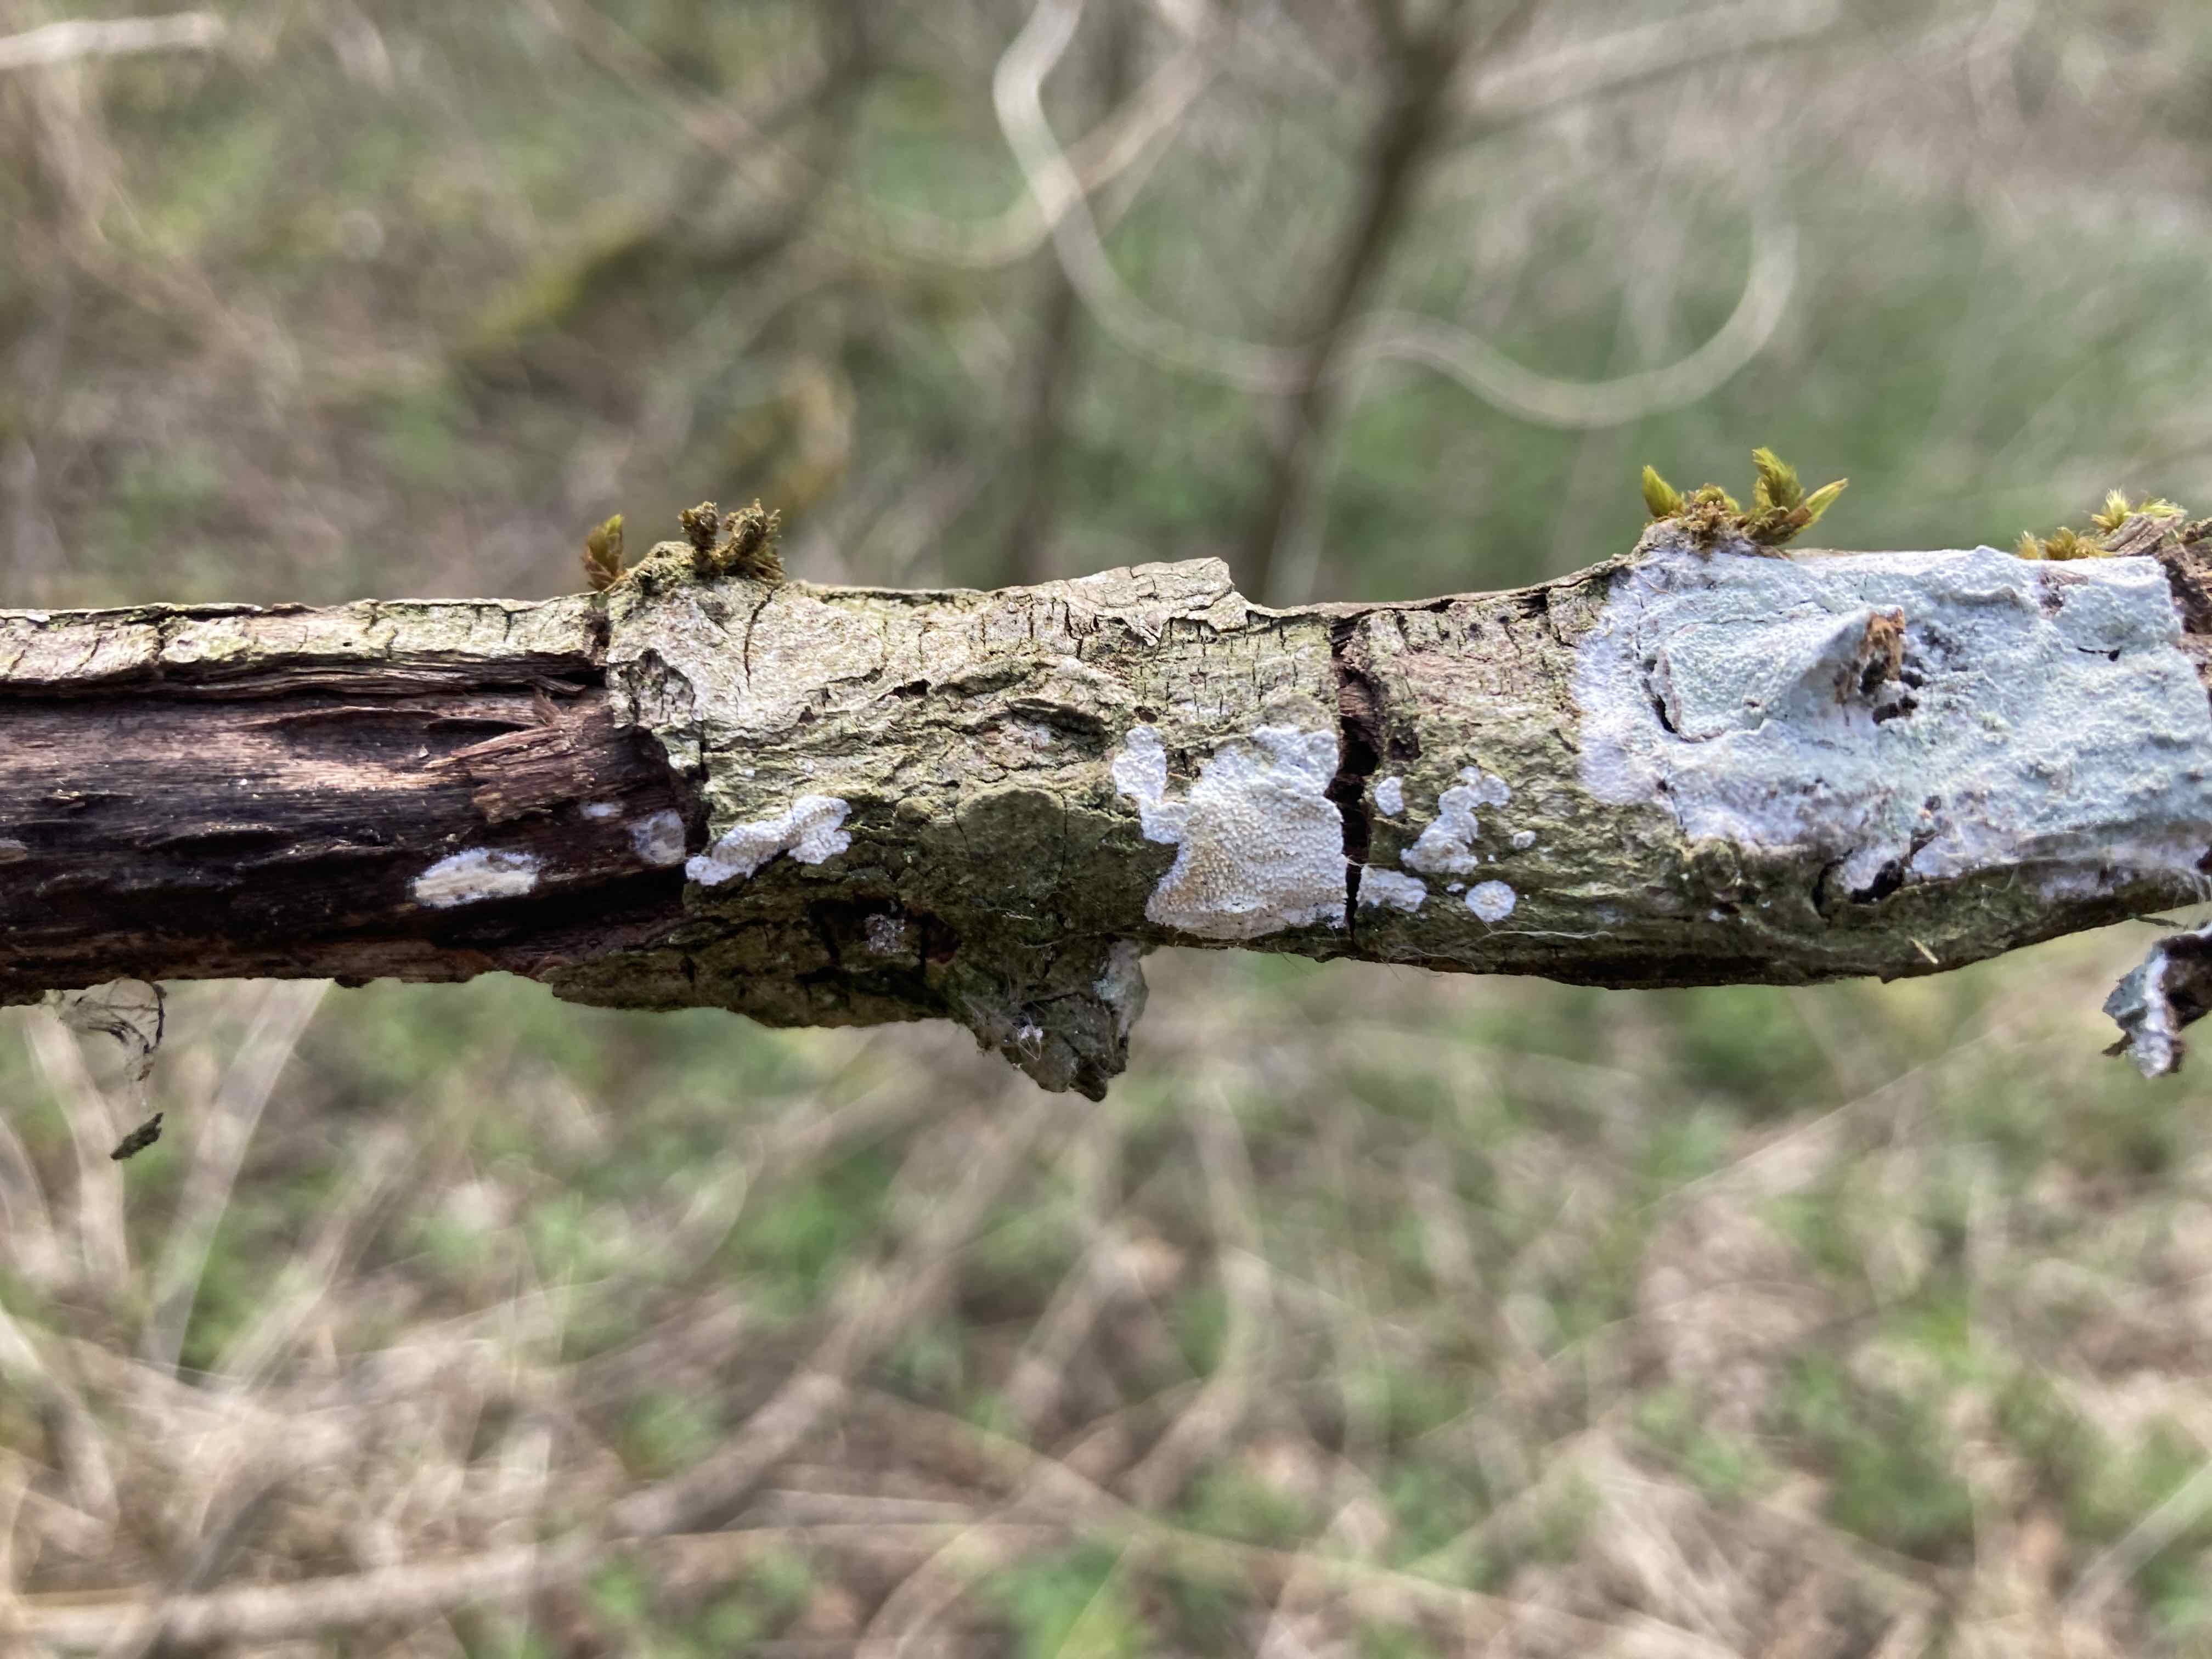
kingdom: Fungi
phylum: Basidiomycota
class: Agaricomycetes
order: Corticiales
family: Corticiaceae
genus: Lyomyces
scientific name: Lyomyces crustosus
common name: vortet hyldehinde
